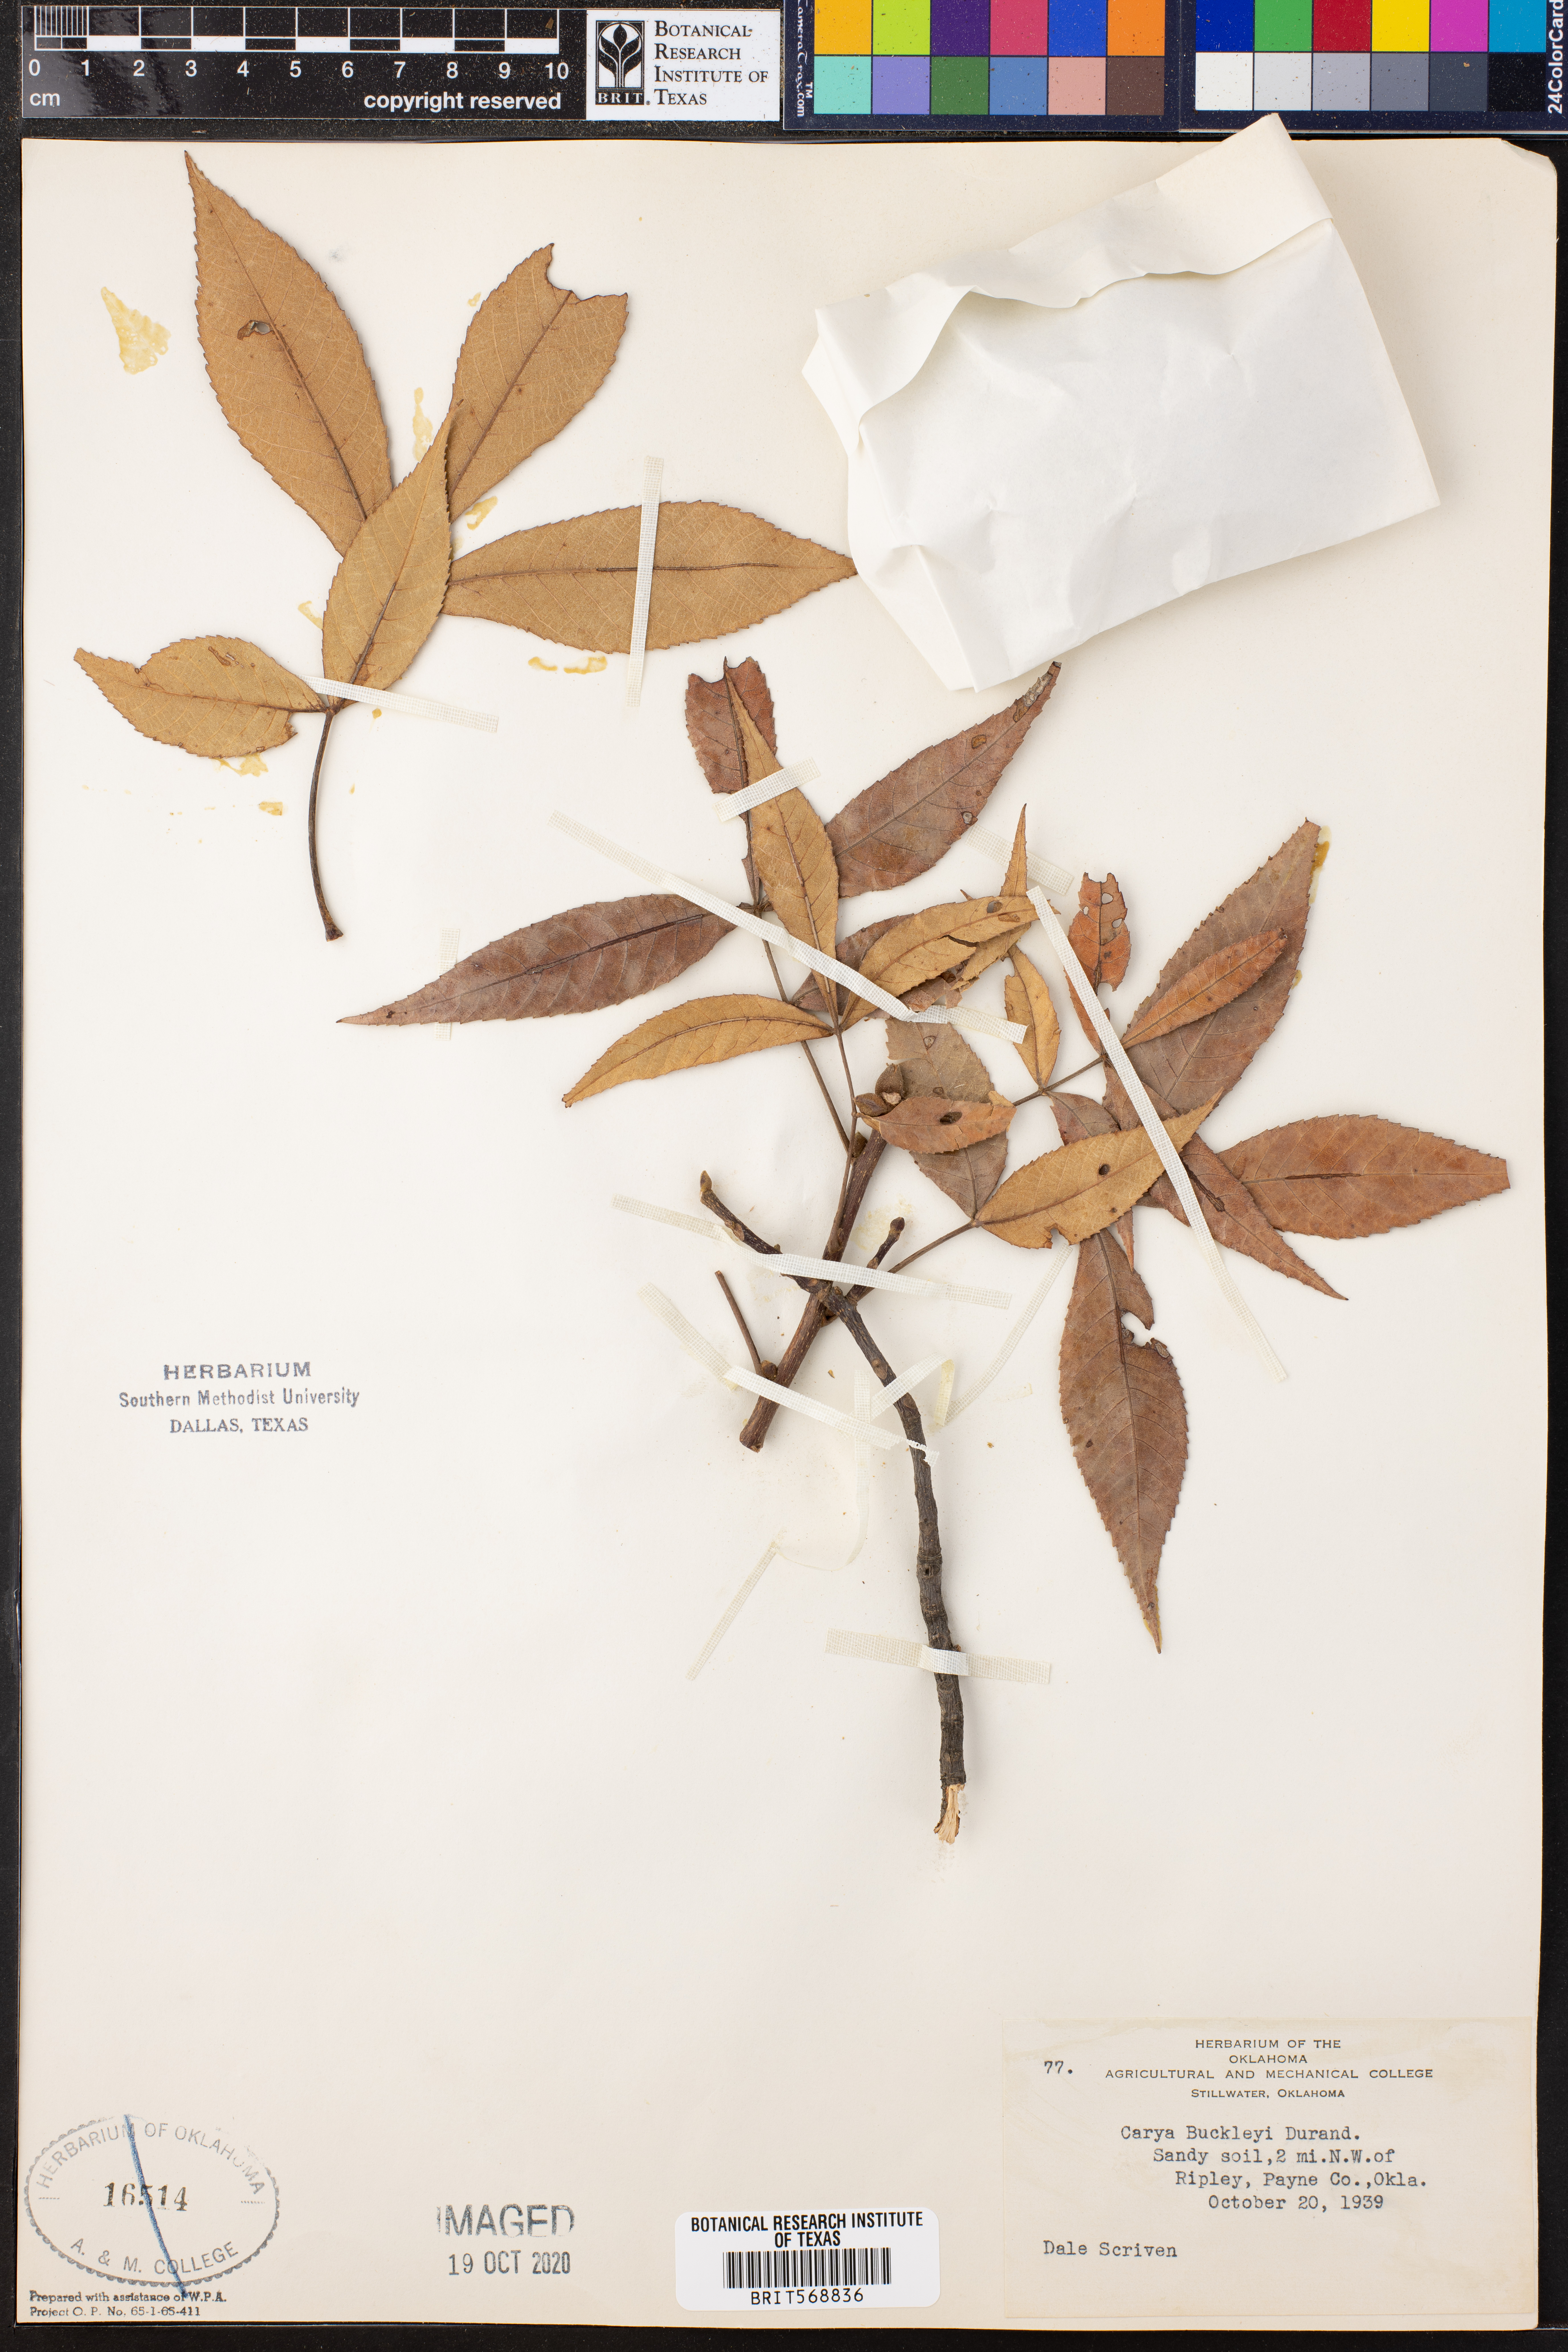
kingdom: Plantae
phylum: Tracheophyta
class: Magnoliopsida
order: Fagales
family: Juglandaceae
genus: Carya
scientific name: Carya texana
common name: Black hickory
